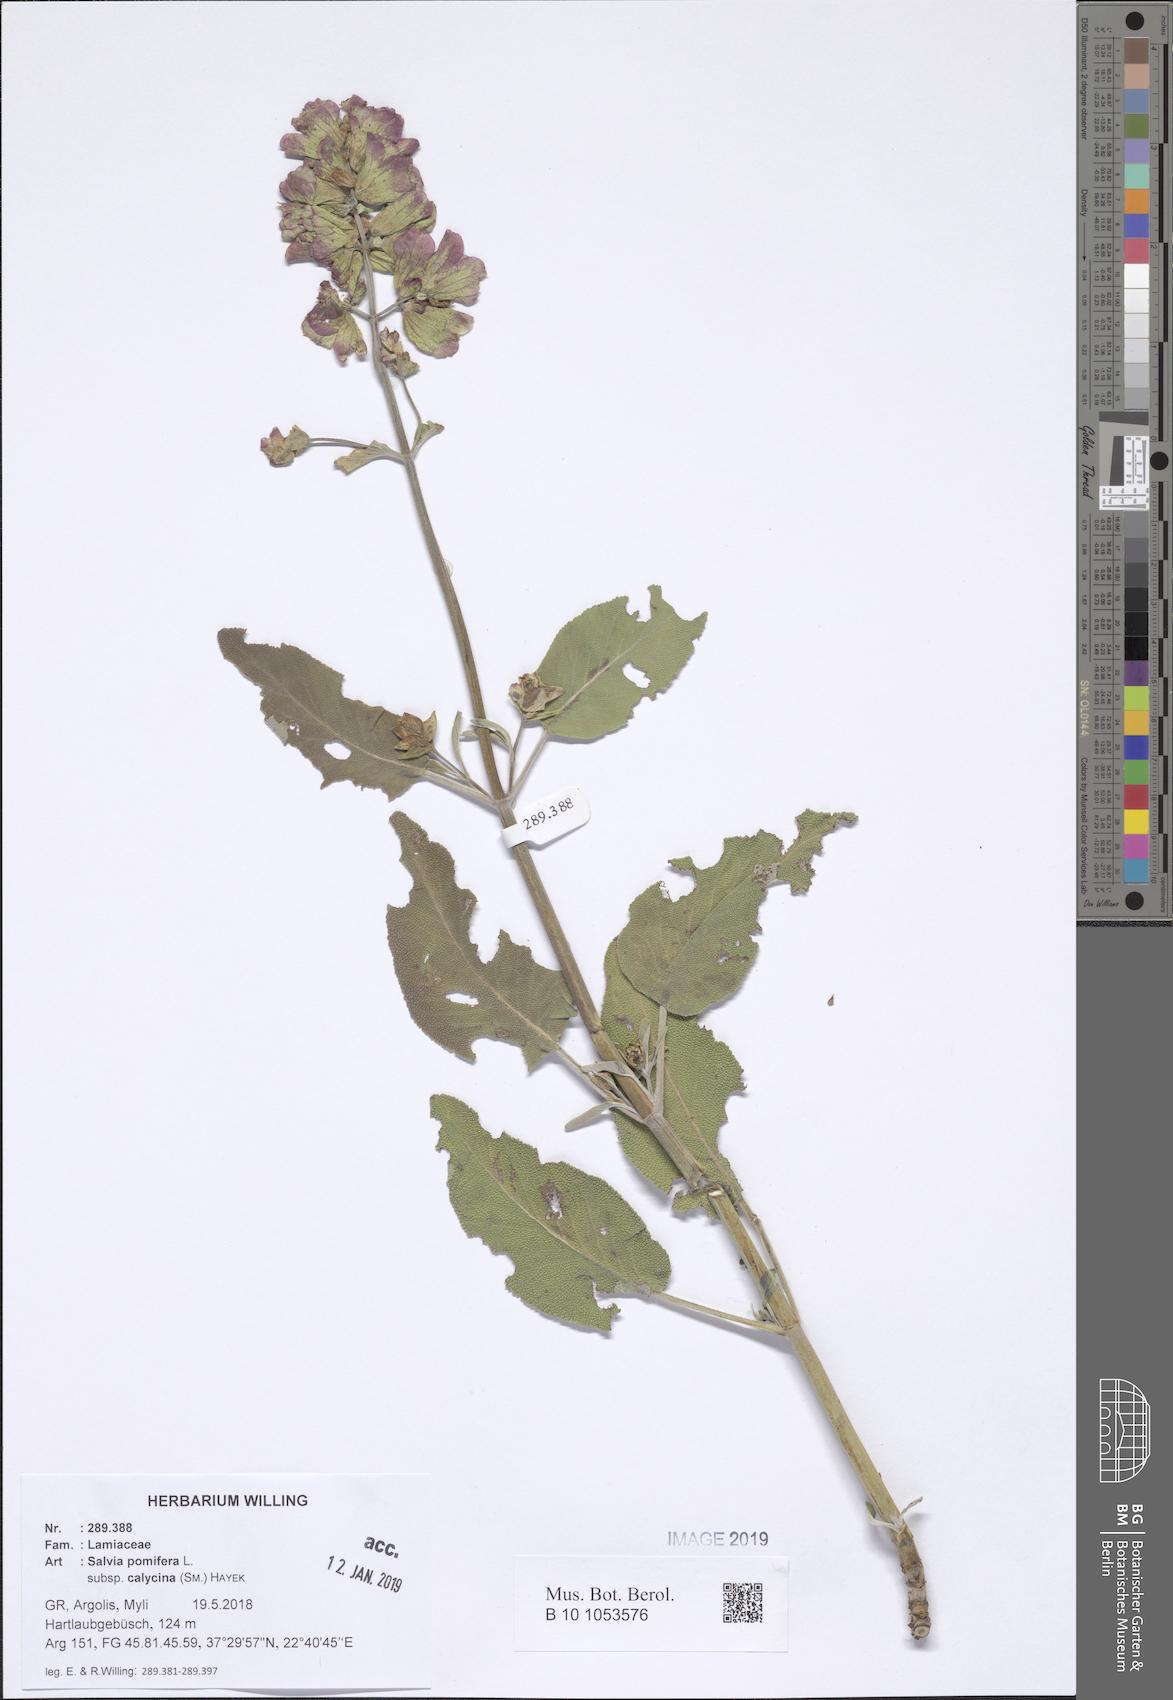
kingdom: Plantae
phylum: Tracheophyta
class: Magnoliopsida
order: Lamiales
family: Lamiaceae
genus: Salvia
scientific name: Salvia pomifera
